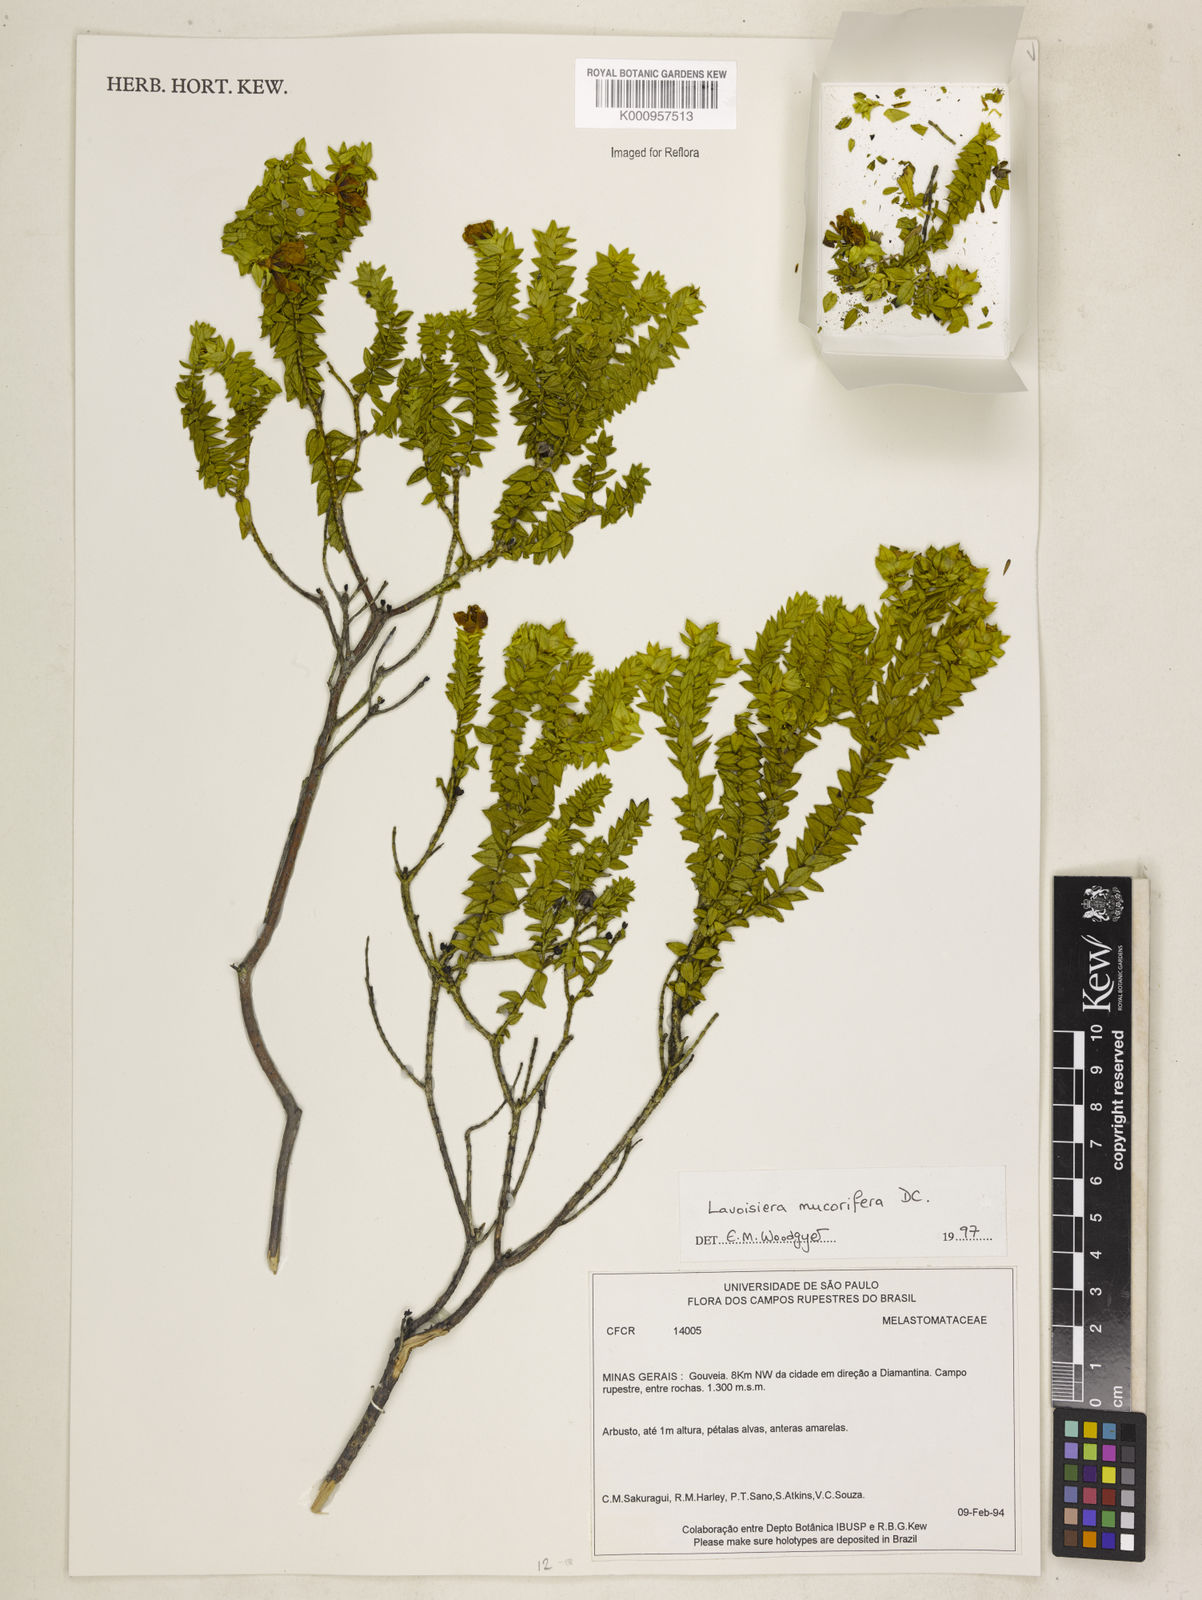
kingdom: Plantae
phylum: Tracheophyta
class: Magnoliopsida
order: Myrtales
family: Melastomataceae
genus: Microlicia
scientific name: Microlicia mucorifera
